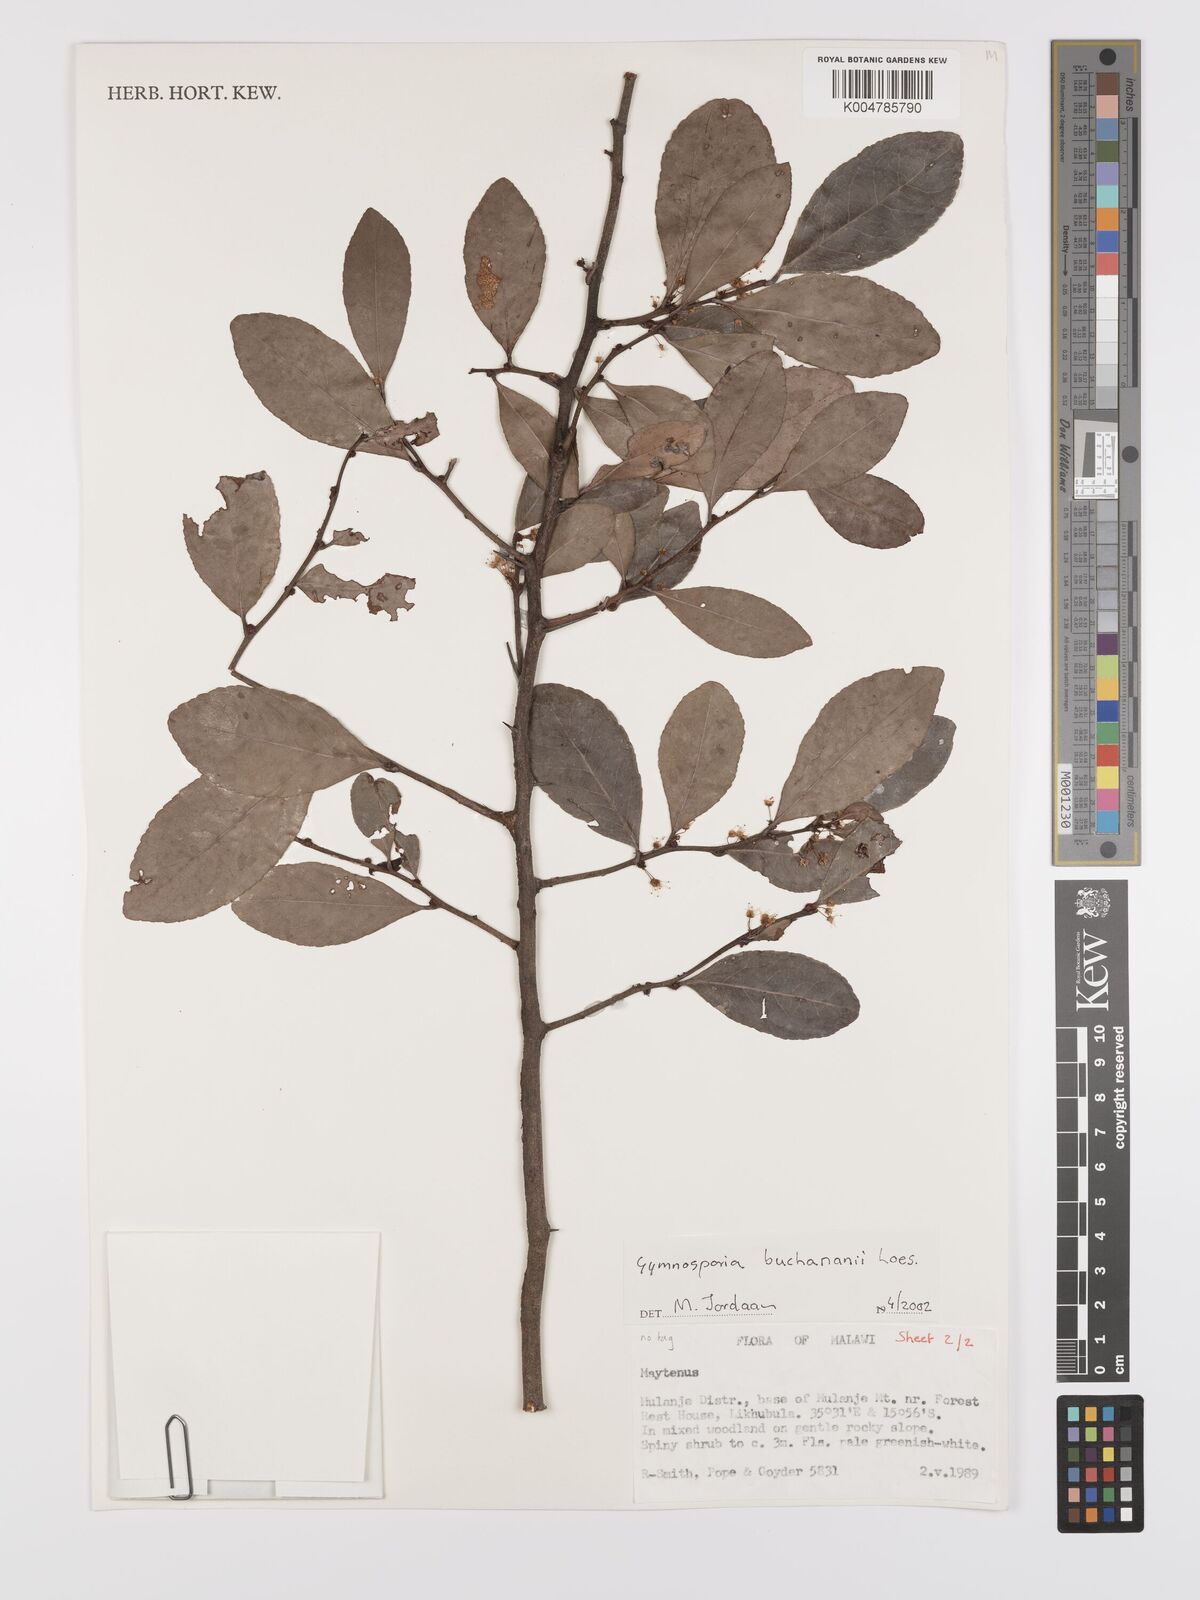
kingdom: Plantae
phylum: Tracheophyta
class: Magnoliopsida
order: Celastrales
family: Celastraceae
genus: Gymnosporia
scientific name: Gymnosporia buchananii
